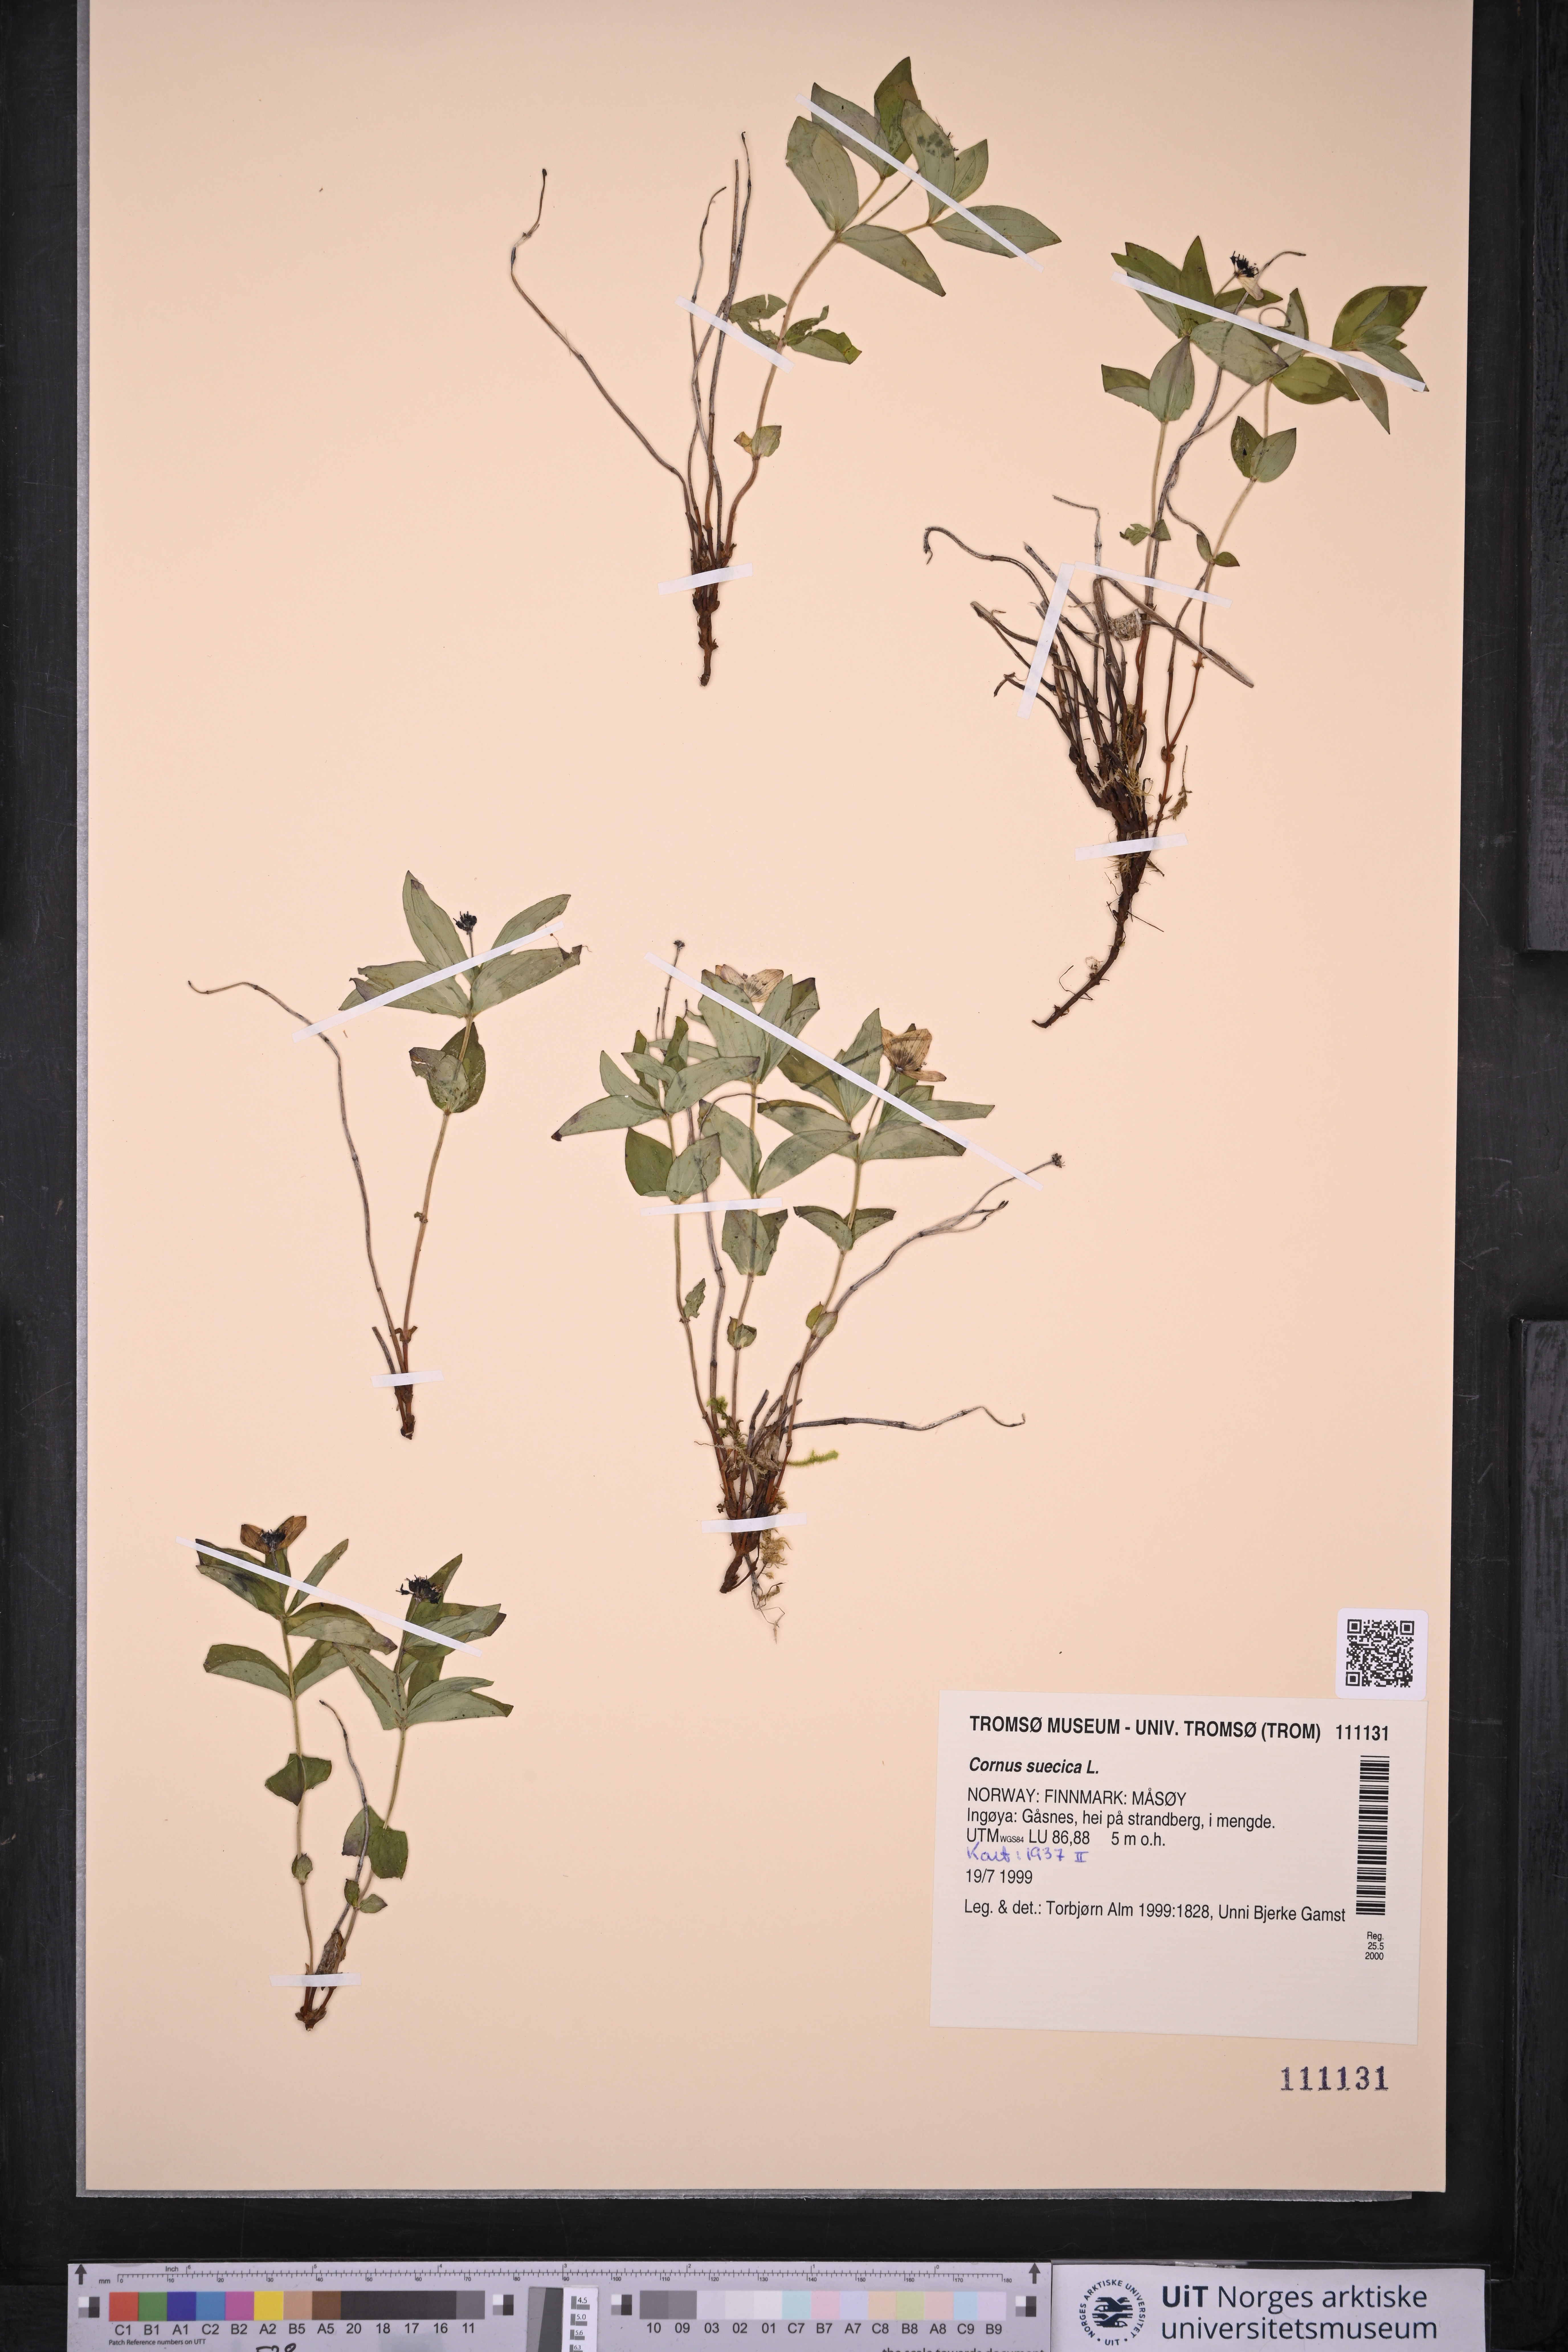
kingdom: Plantae
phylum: Tracheophyta
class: Magnoliopsida
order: Cornales
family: Cornaceae
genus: Cornus
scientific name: Cornus suecica
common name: Dwarf cornel
